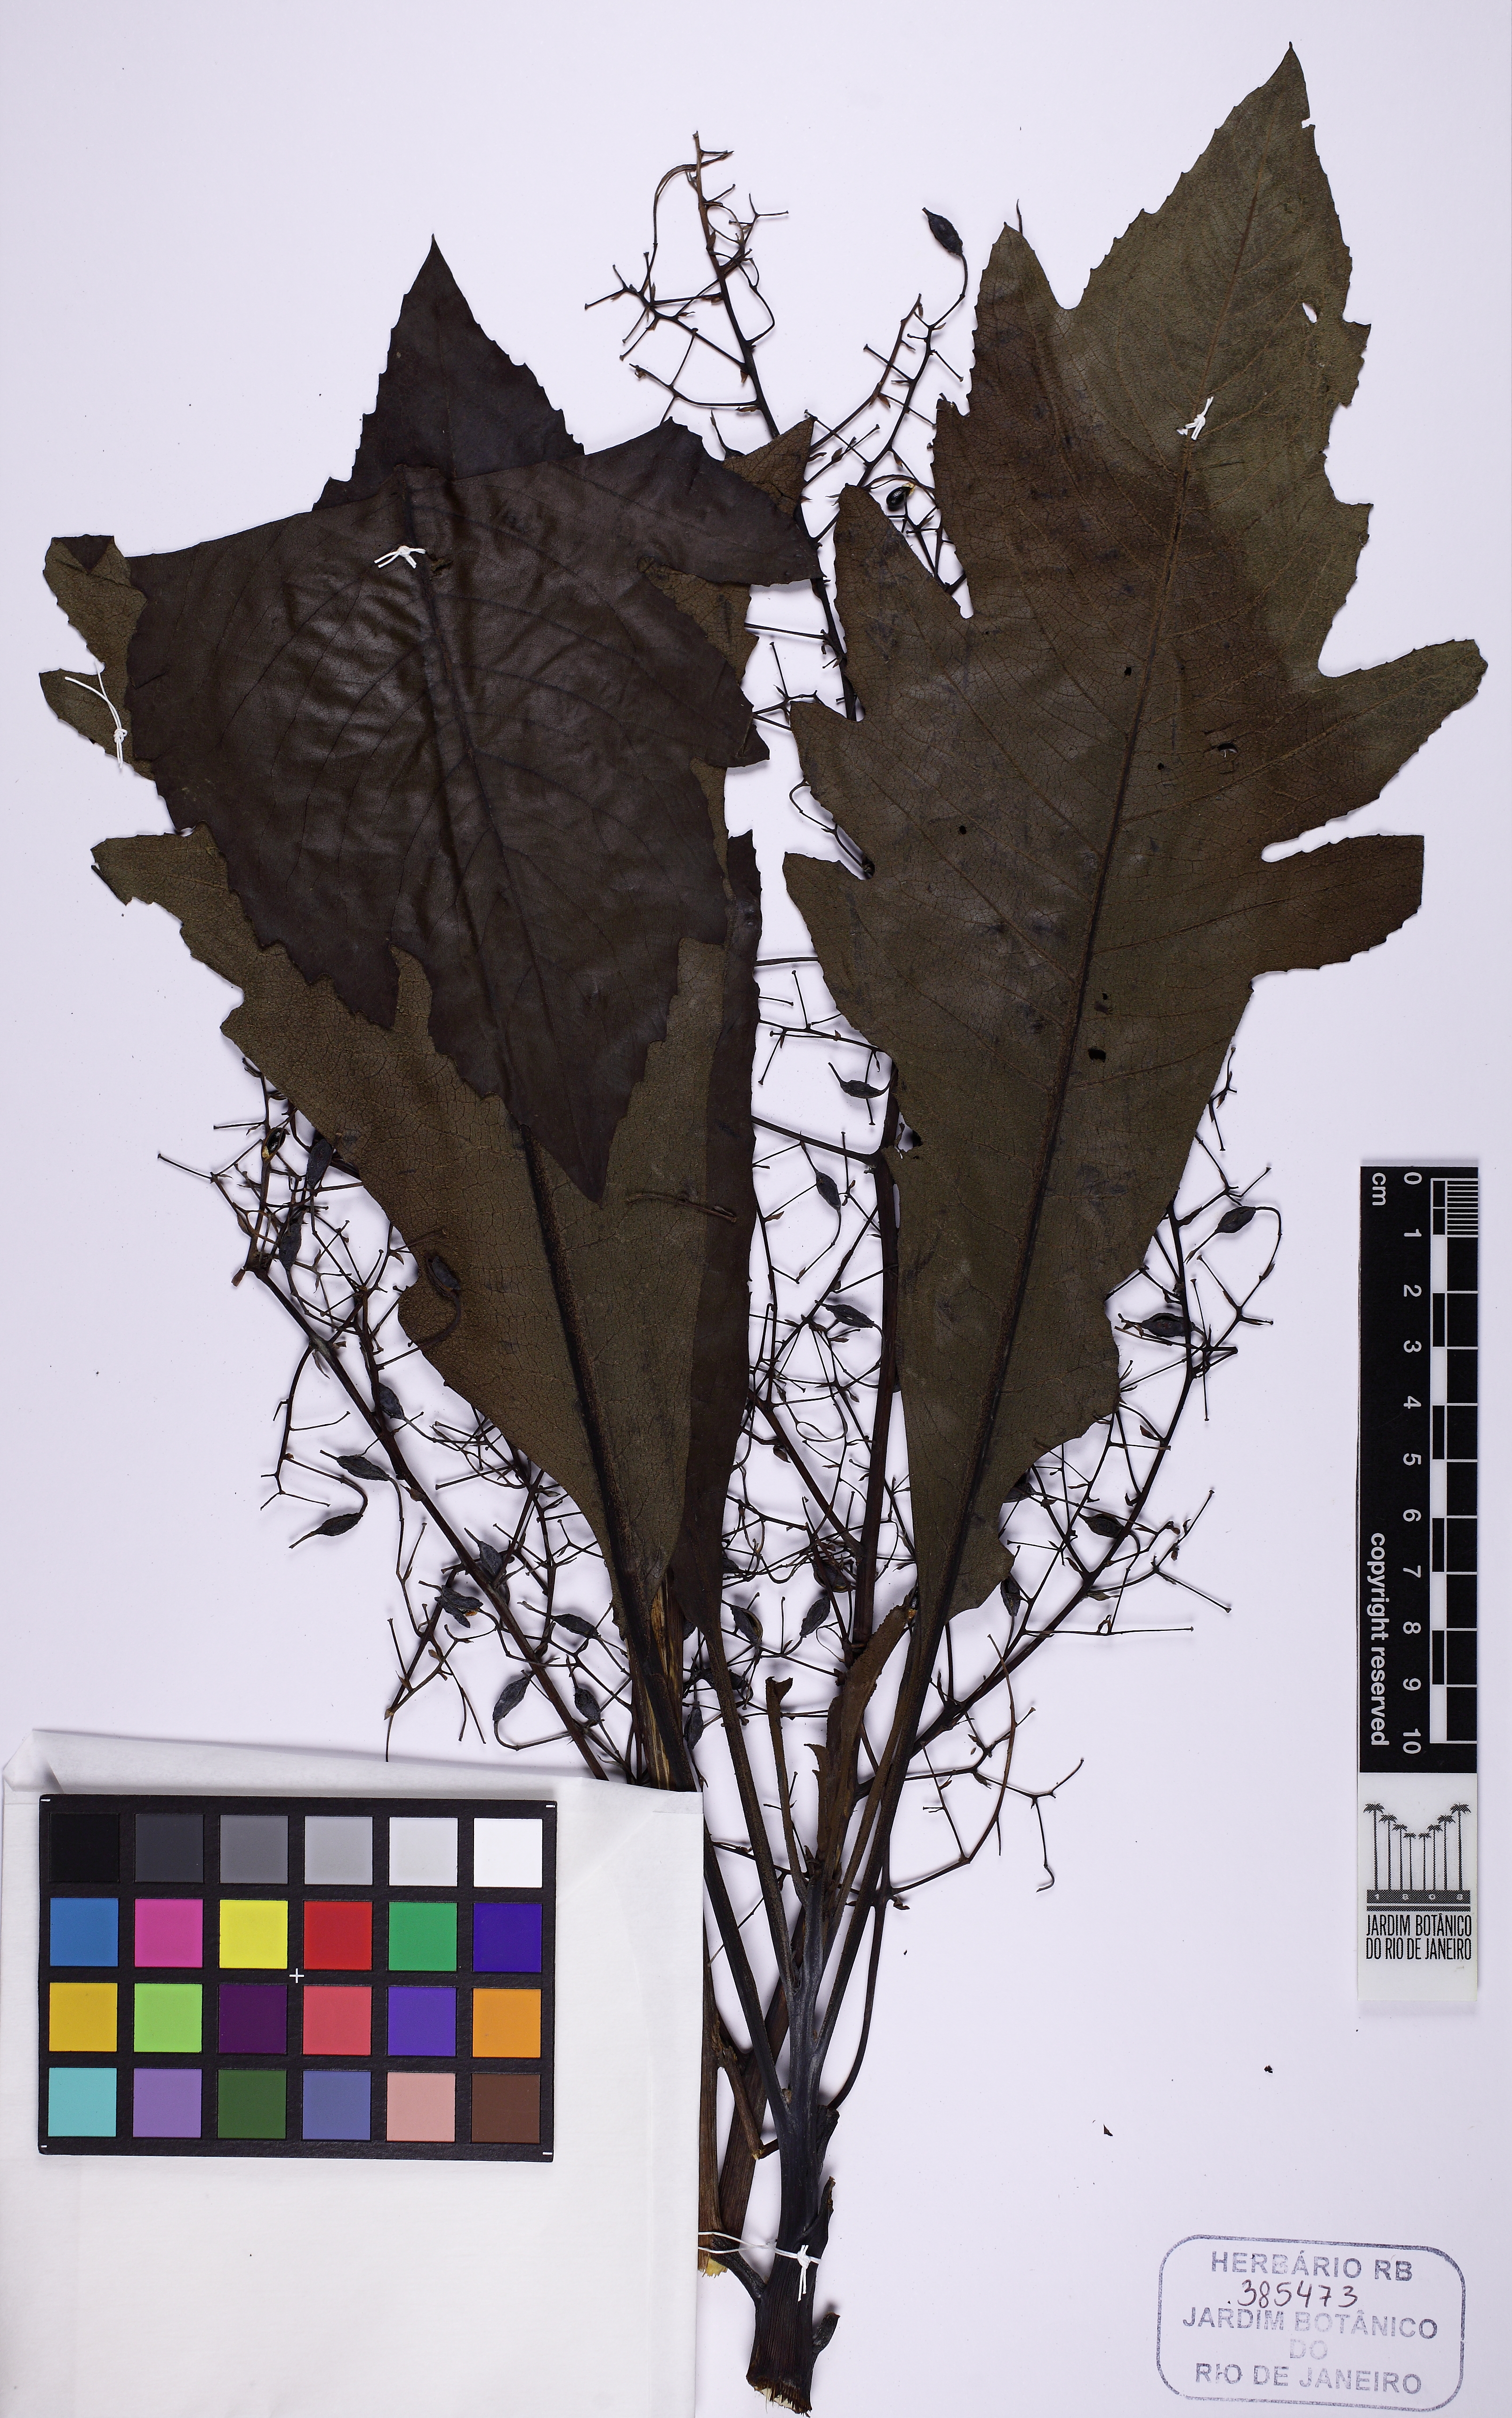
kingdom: Plantae
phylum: Tracheophyta
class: Magnoliopsida
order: Ranunculales
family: Papaveraceae
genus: Bocconia
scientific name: Bocconia integrifolia
